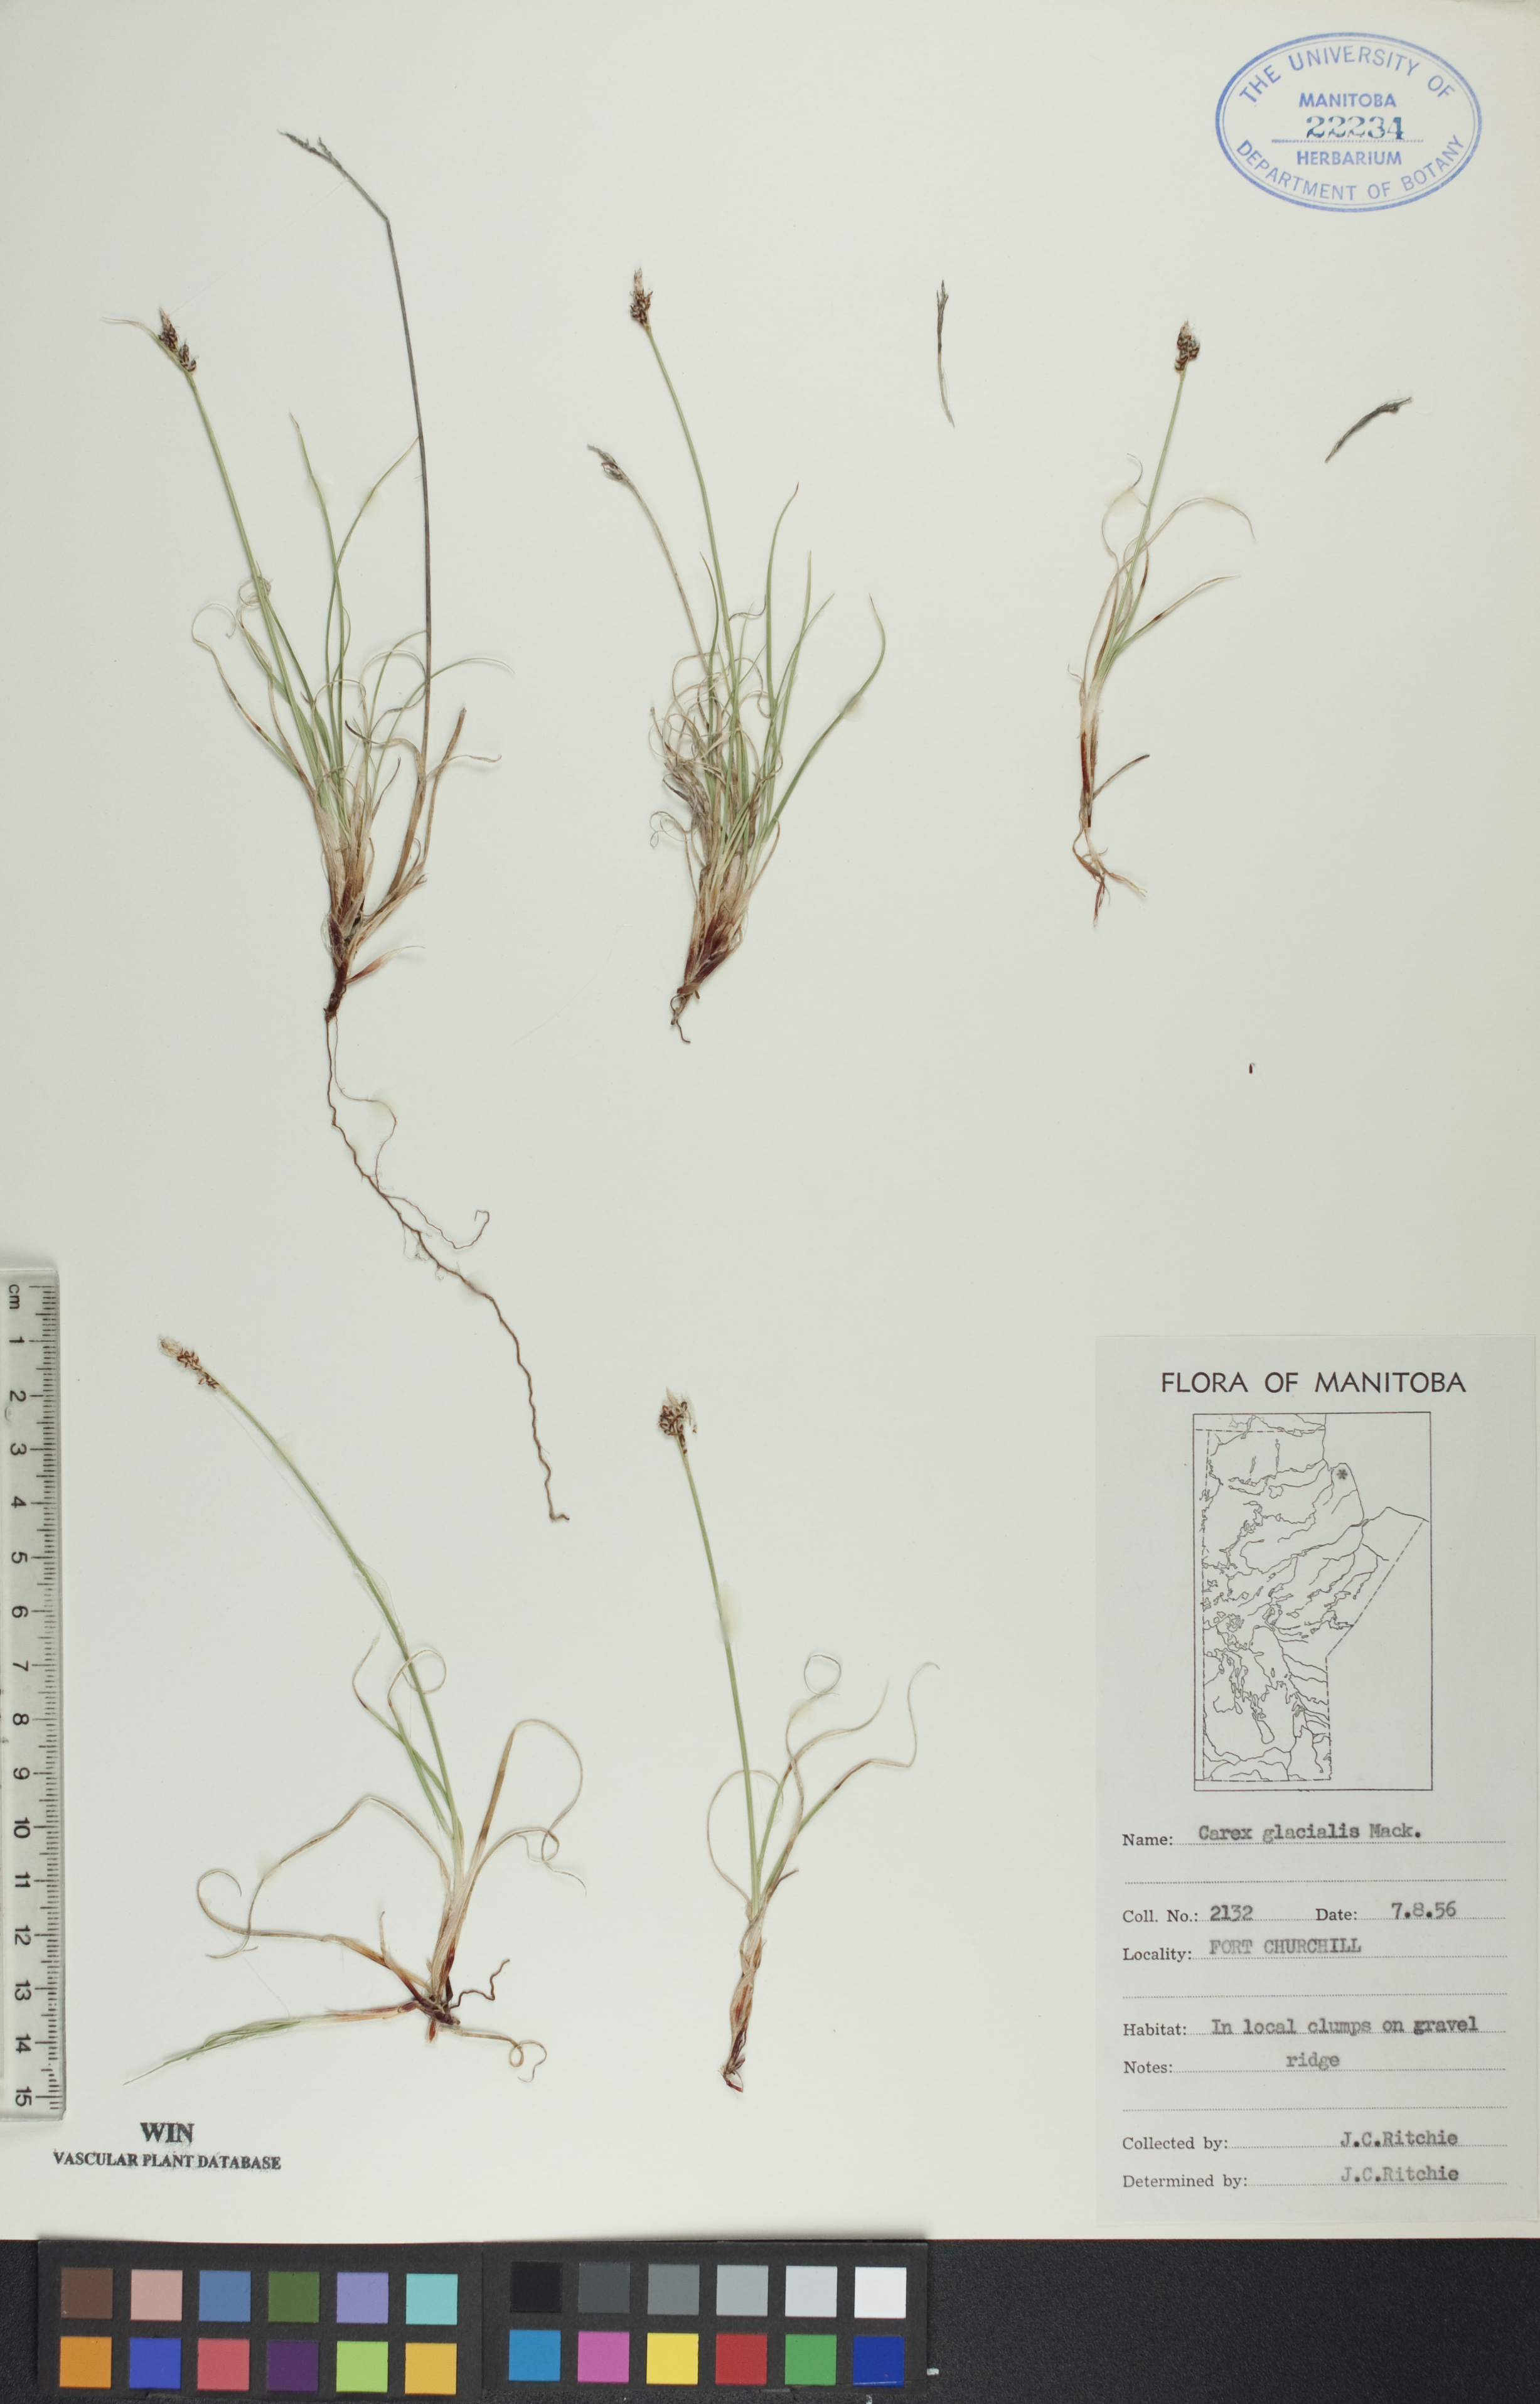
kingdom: Plantae
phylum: Tracheophyta
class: Liliopsida
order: Poales
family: Cyperaceae
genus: Carex
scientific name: Carex glacialis
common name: Newfoundland sedge
